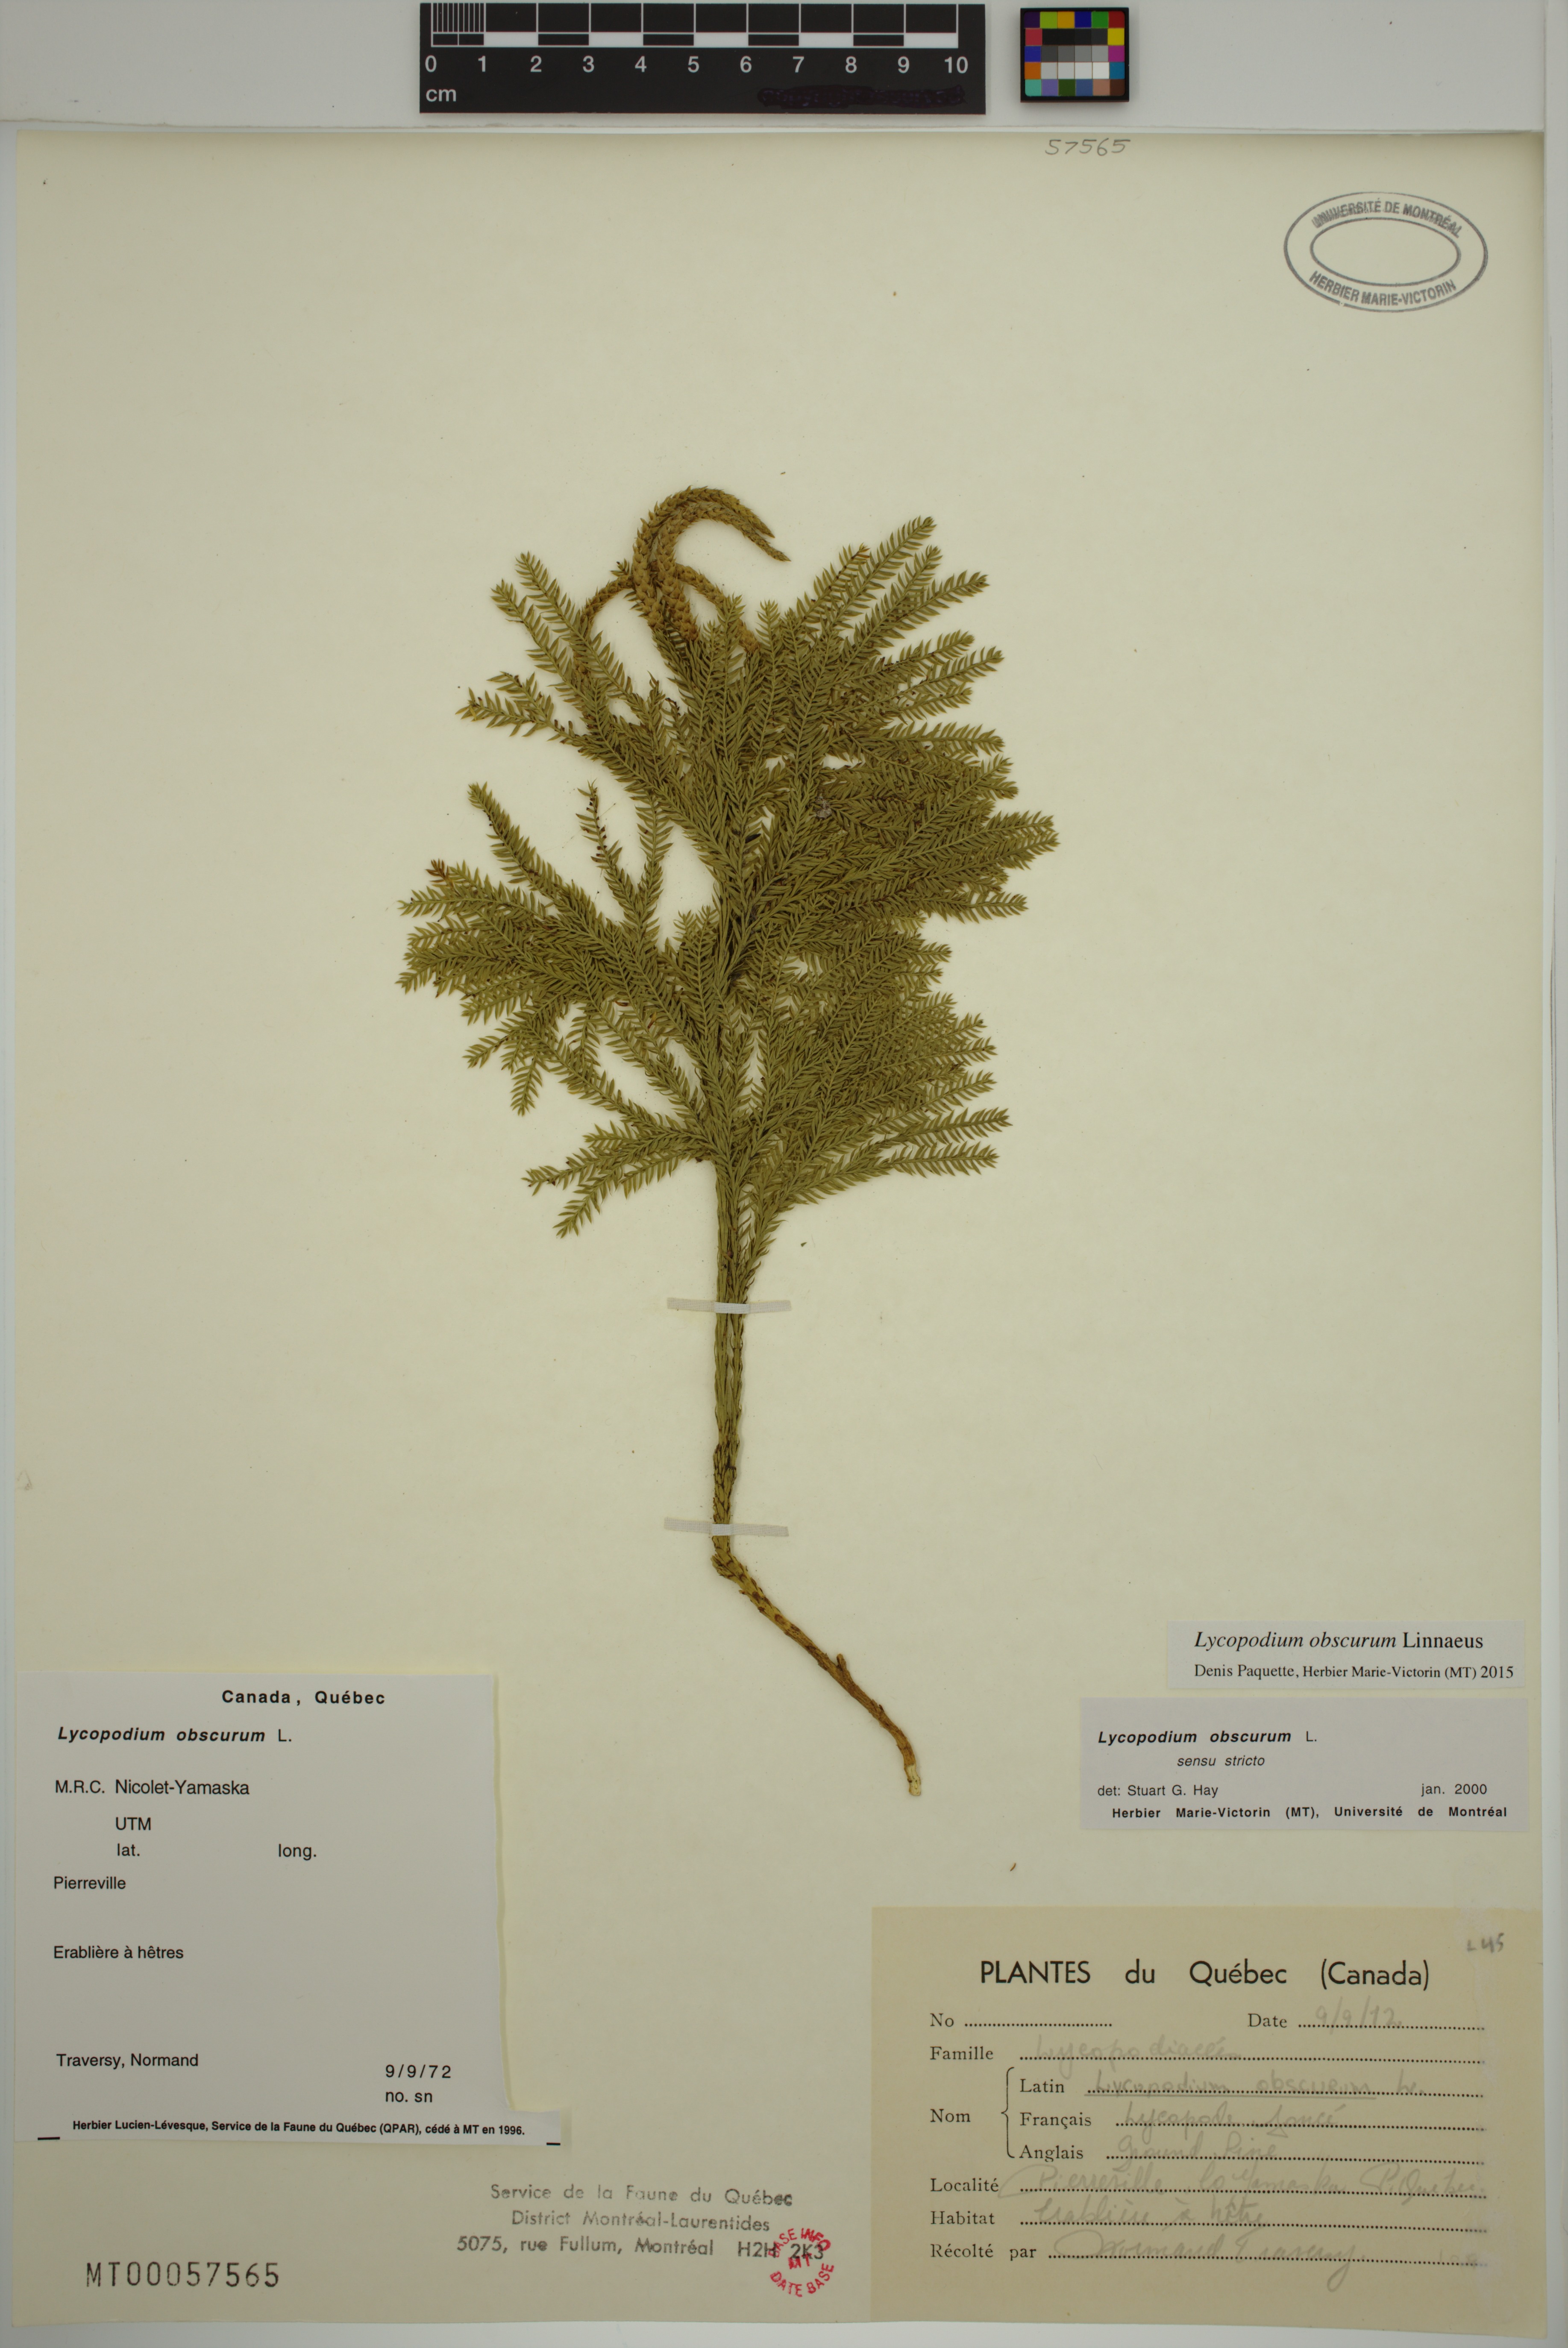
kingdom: Plantae
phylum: Tracheophyta
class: Lycopodiopsida
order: Lycopodiales
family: Lycopodiaceae
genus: Dendrolycopodium
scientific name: Dendrolycopodium obscurum
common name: Common ground-pine
